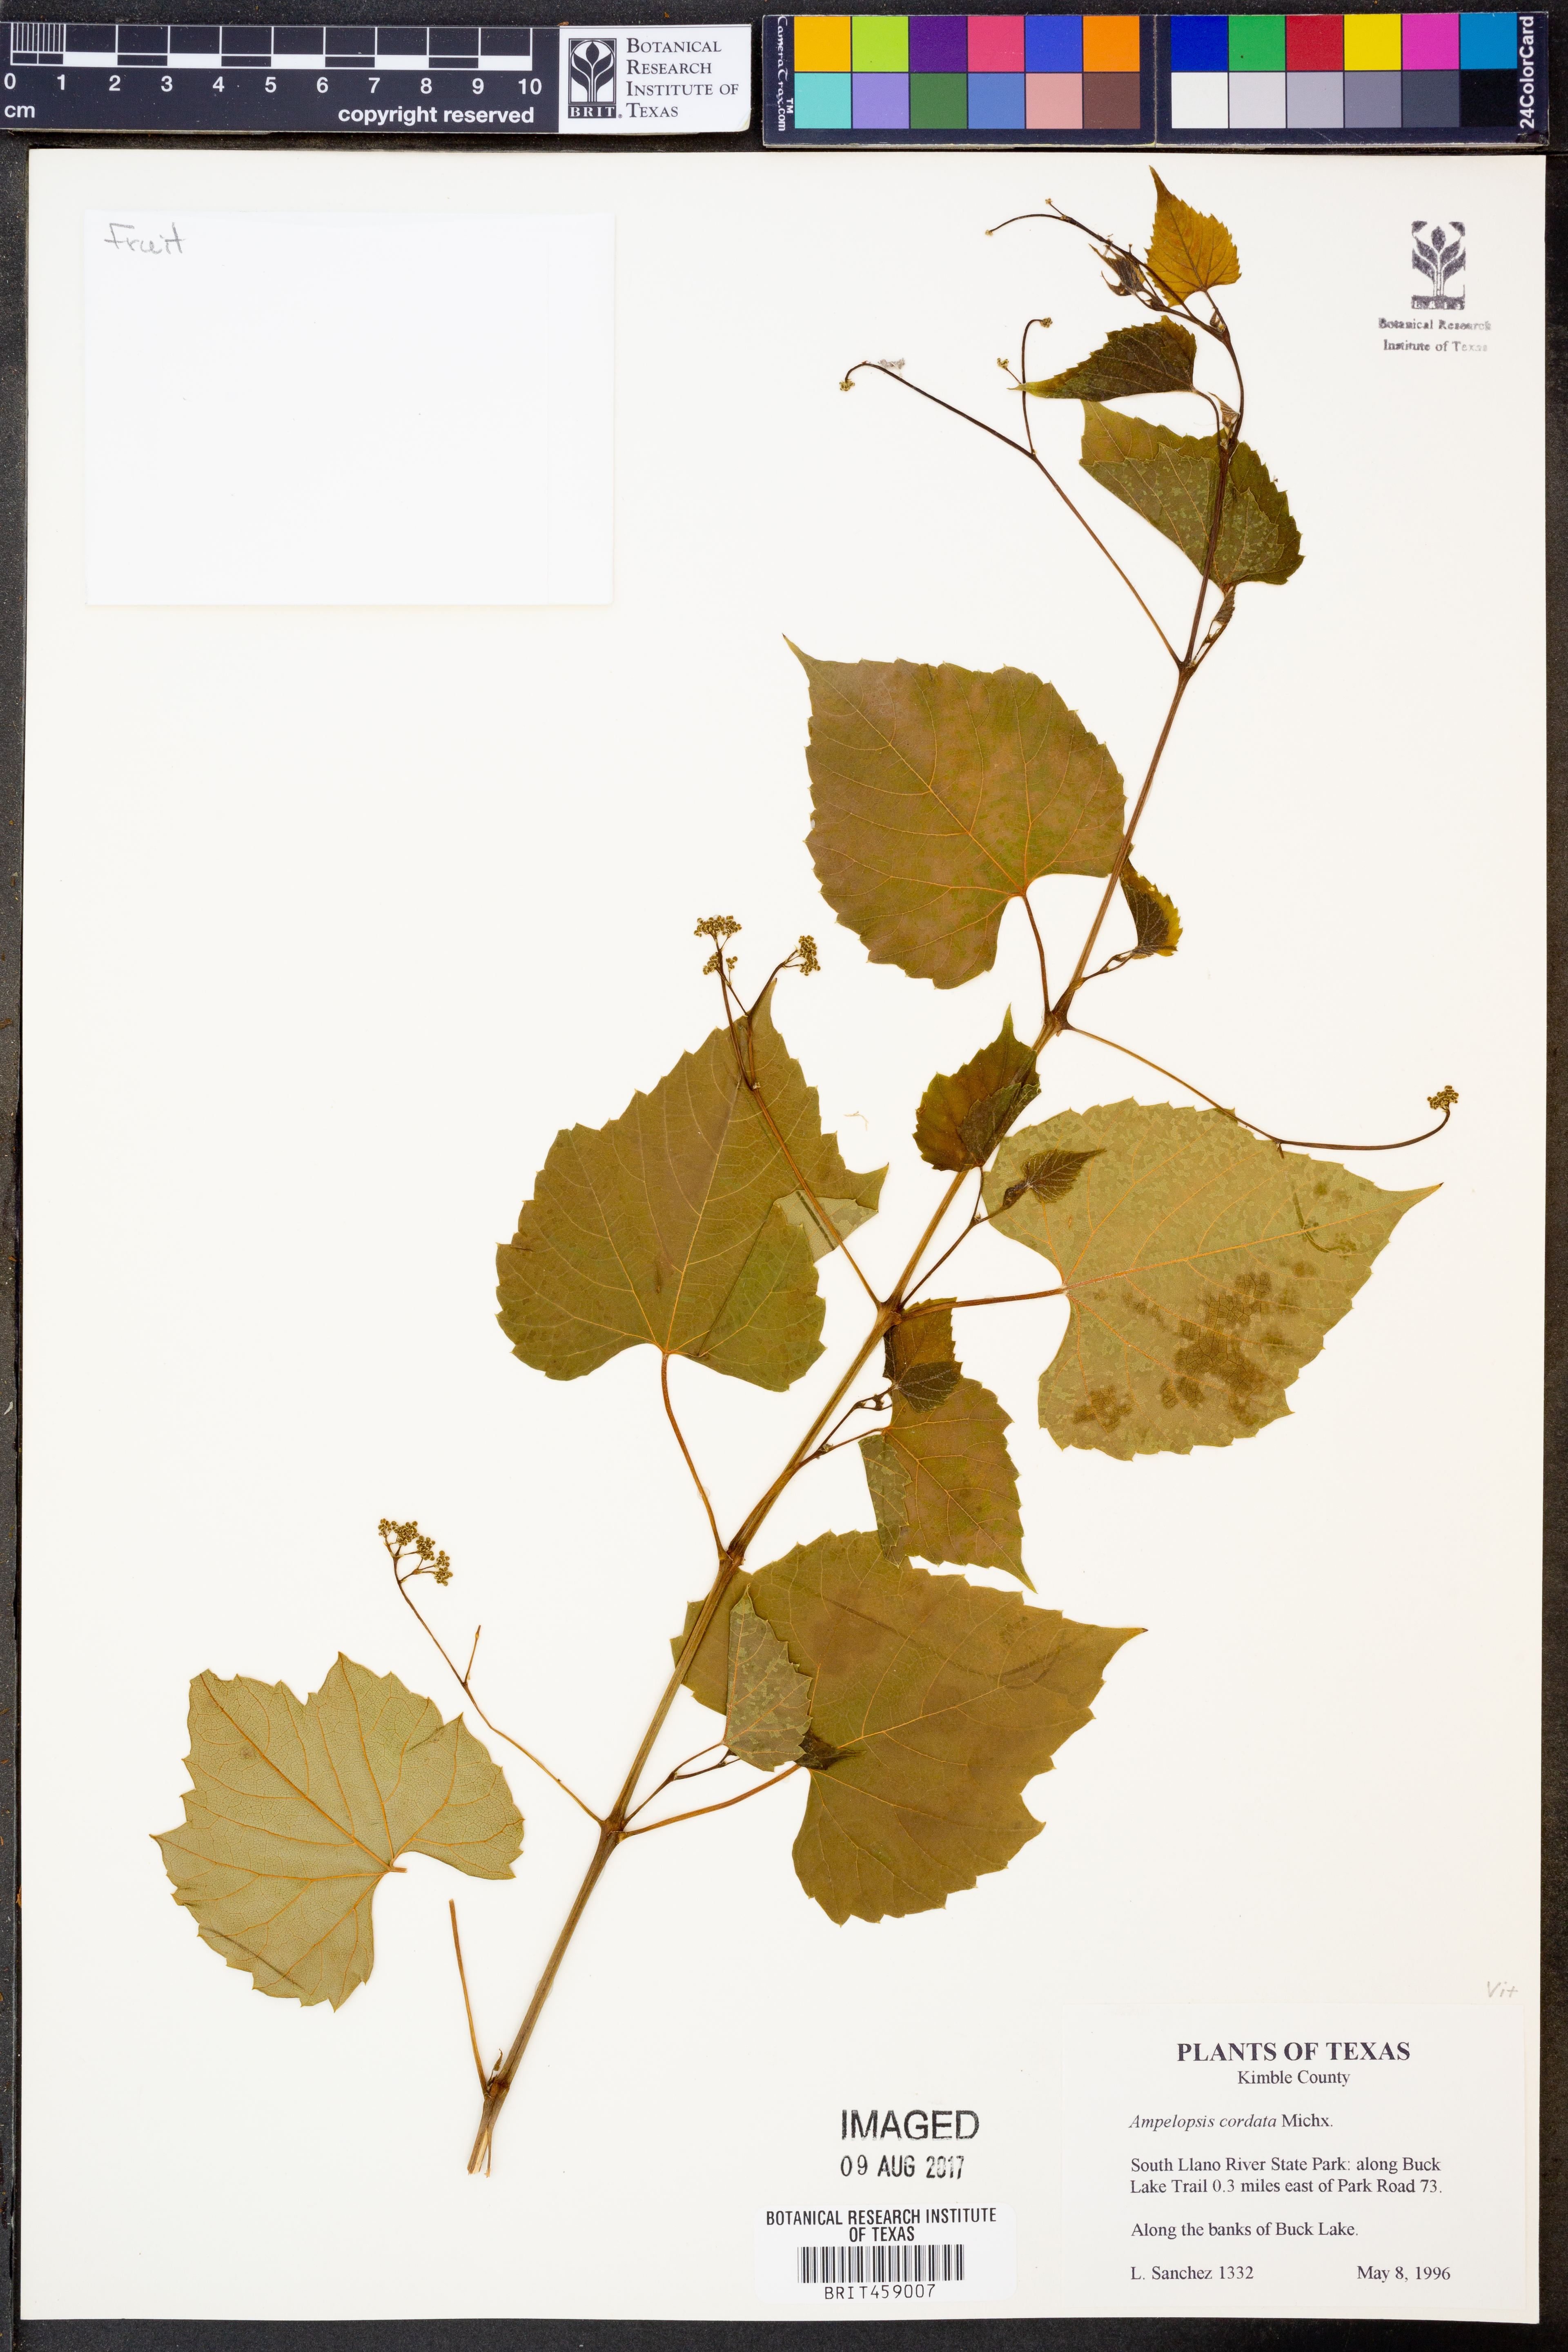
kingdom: Plantae
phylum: Tracheophyta
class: Magnoliopsida
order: Vitales
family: Vitaceae
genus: Ampelopsis
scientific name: Ampelopsis cordata
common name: Heart-leaf ampelopsis
